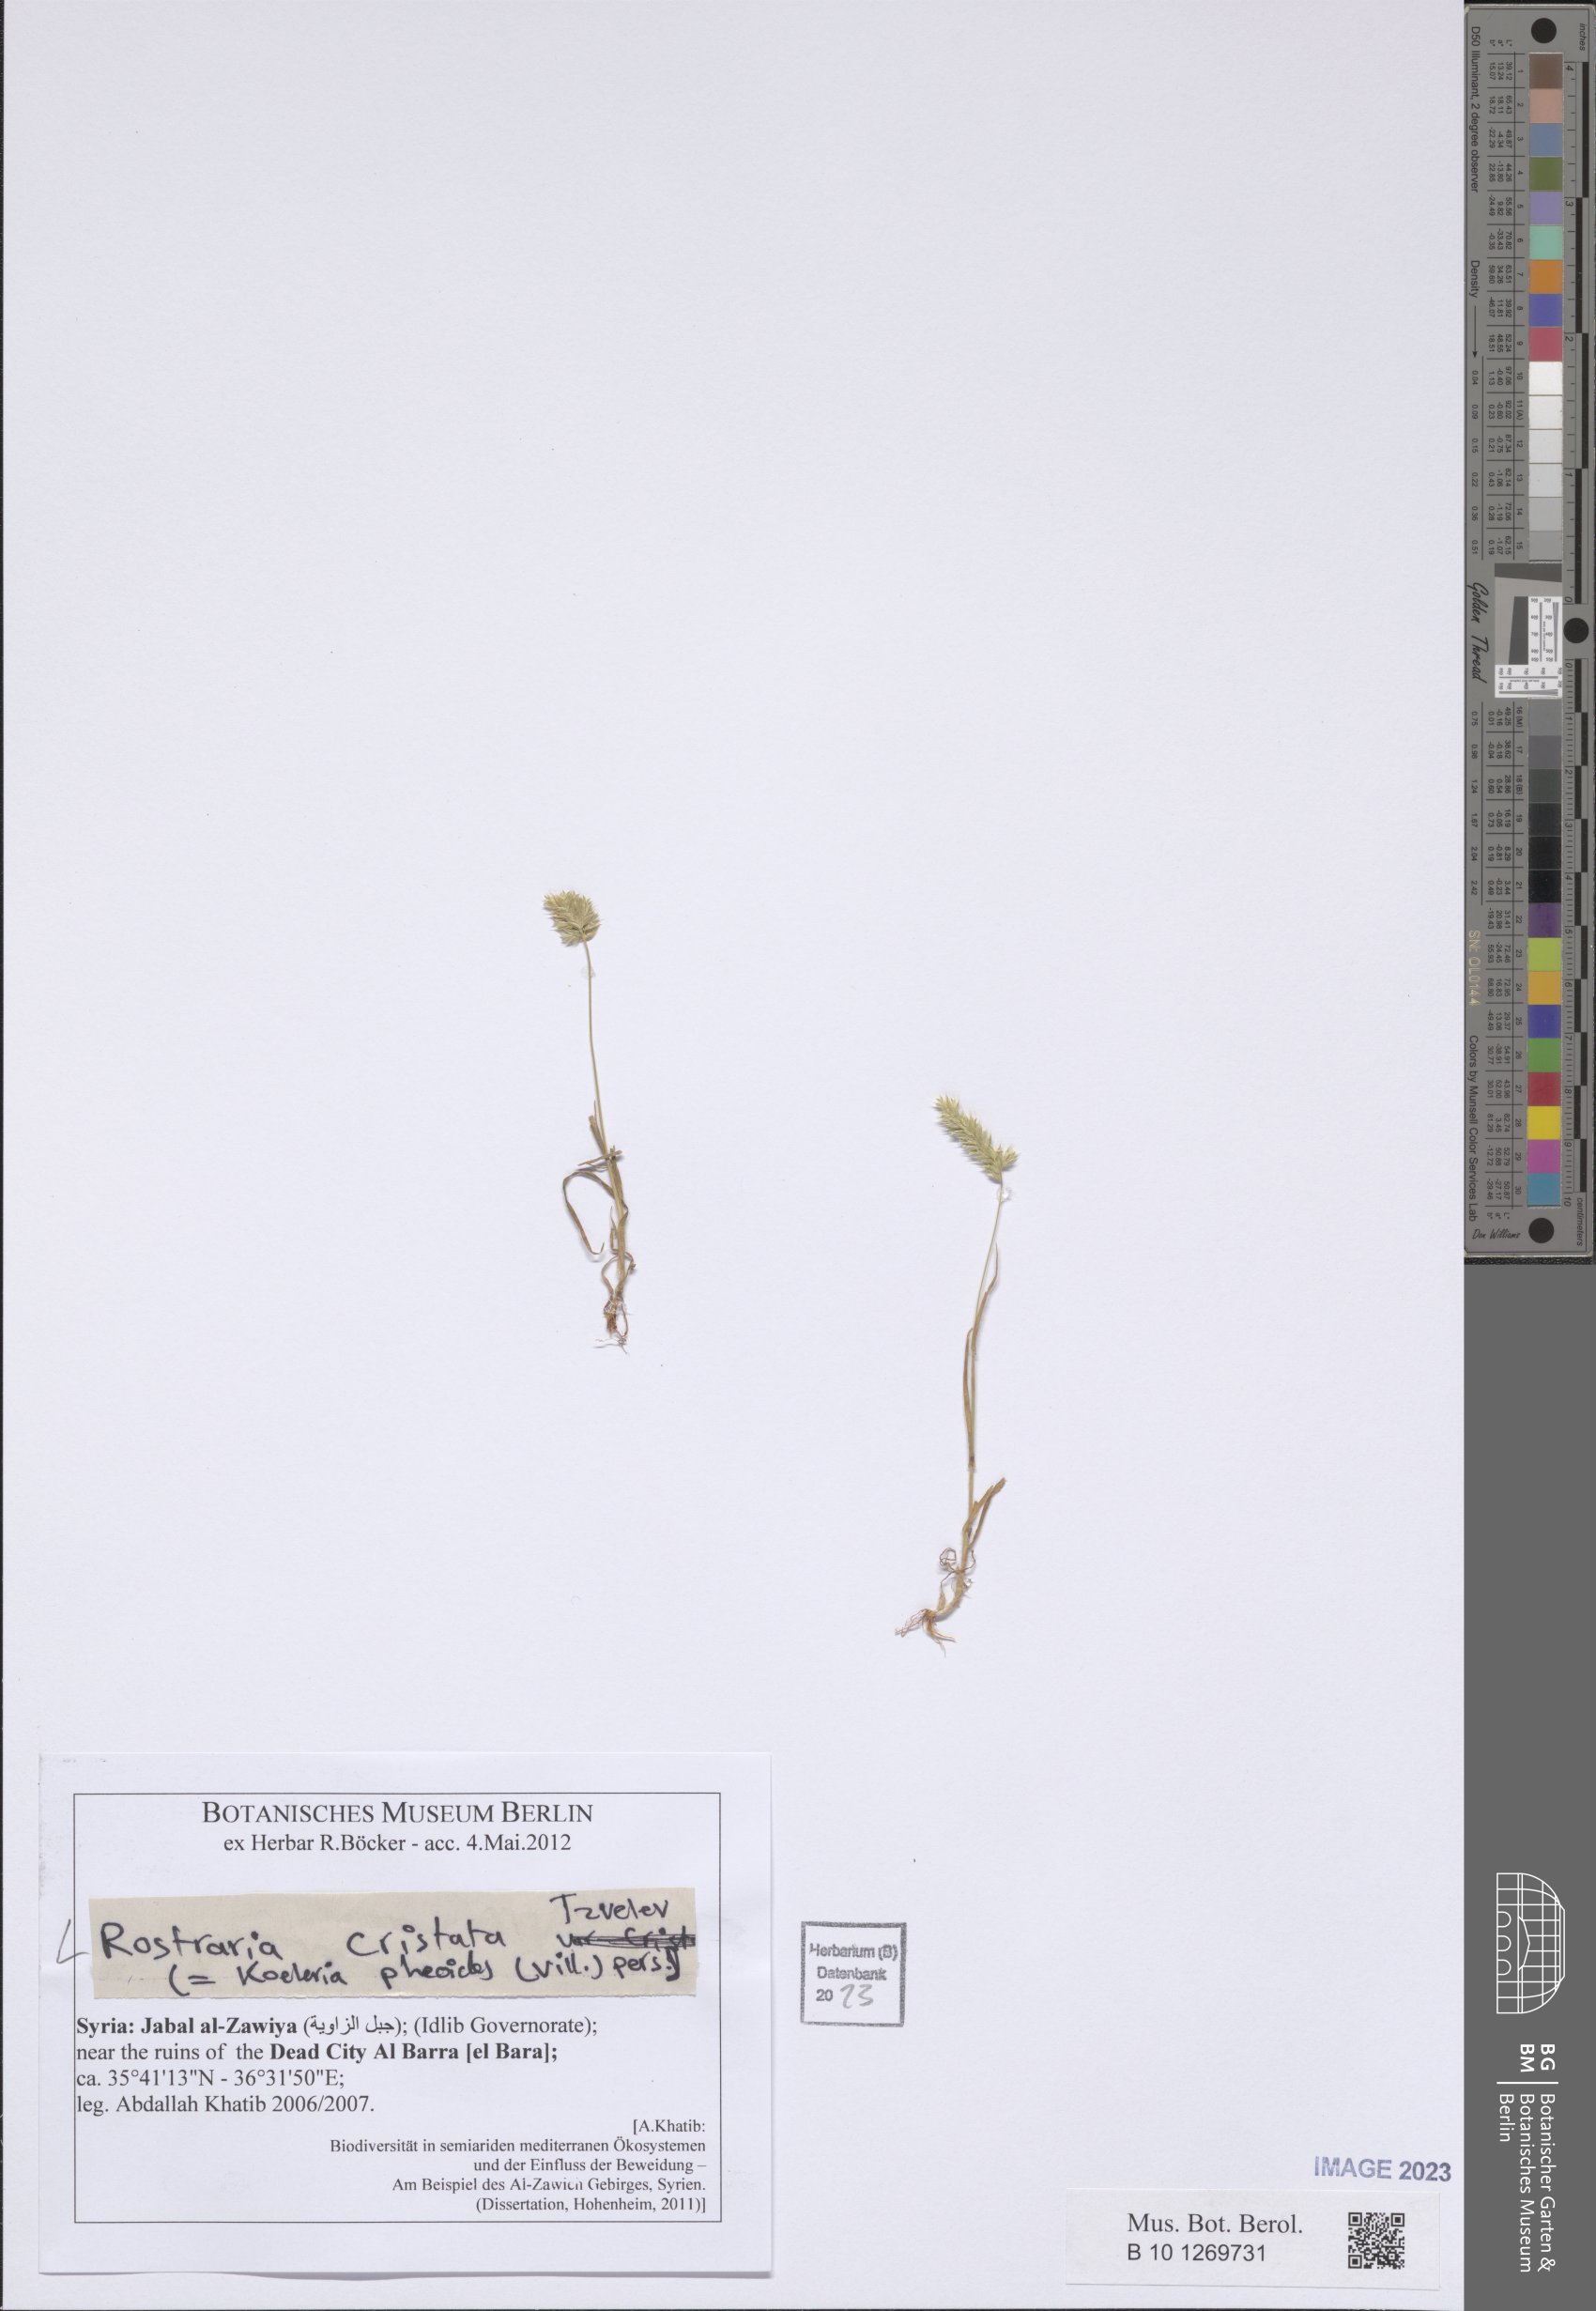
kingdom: Plantae
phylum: Tracheophyta
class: Liliopsida
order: Poales
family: Poaceae
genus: Rostraria
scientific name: Rostraria cristata
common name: Mediterranean hair-grass
